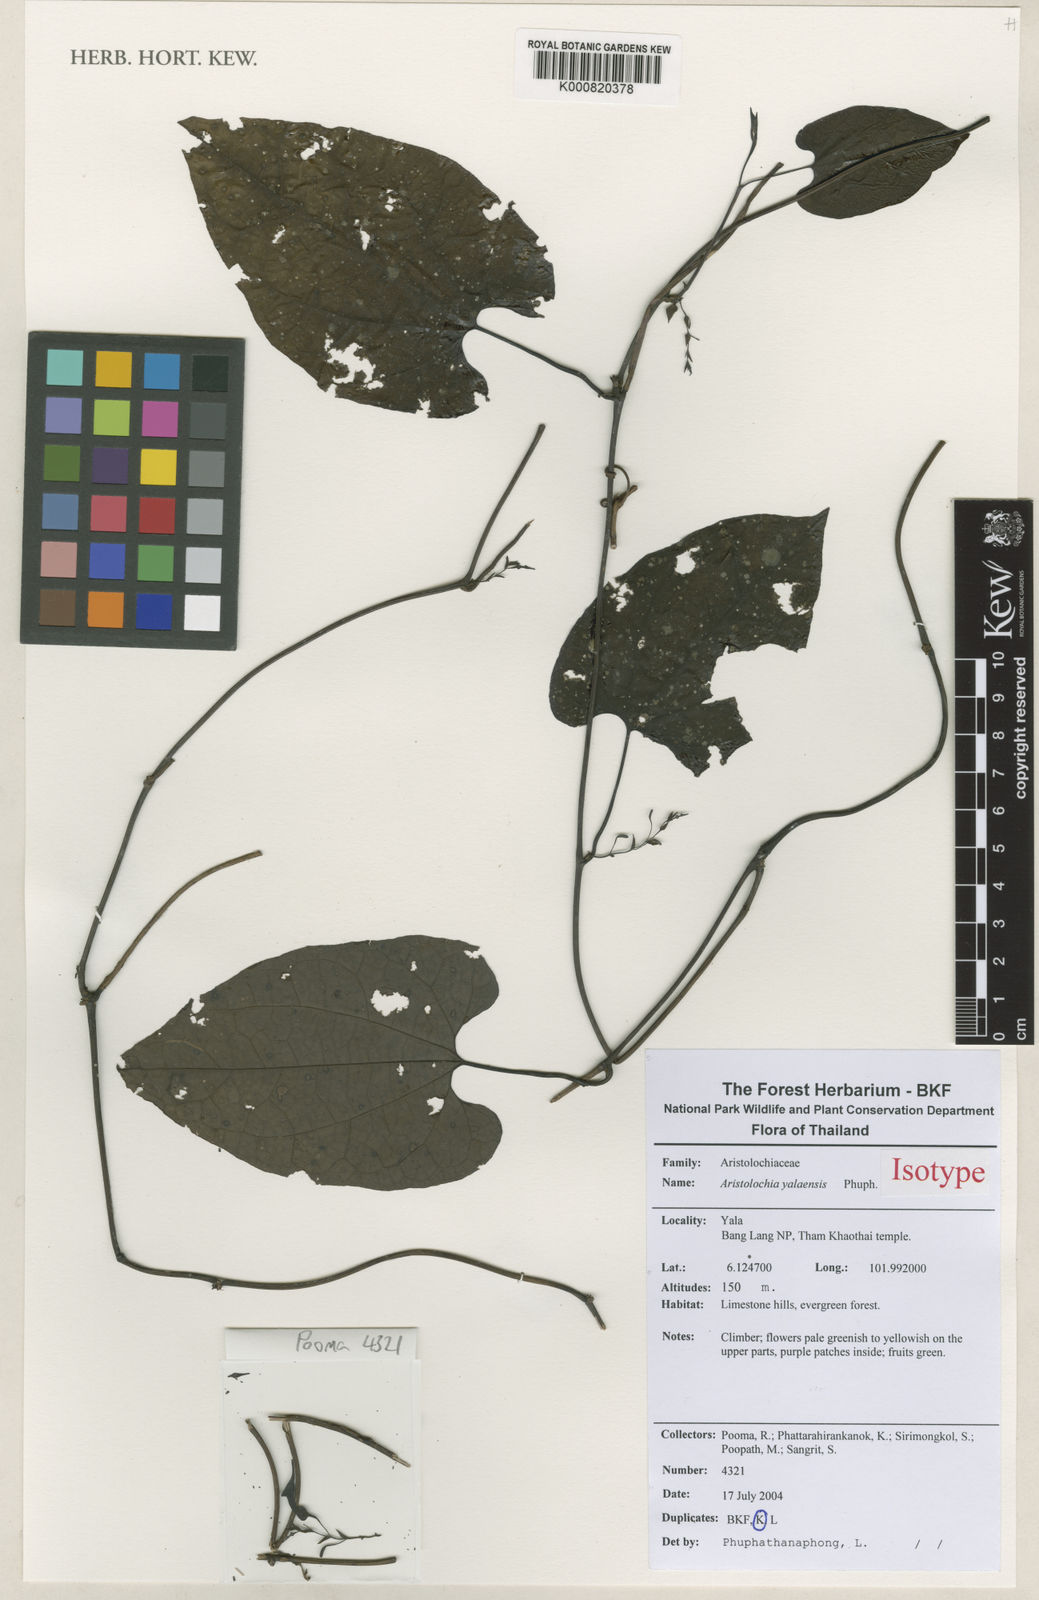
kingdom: Plantae
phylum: Tracheophyta
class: Magnoliopsida
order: Piperales
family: Aristolochiaceae
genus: Aristolochia
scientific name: Aristolochia yalaensis
